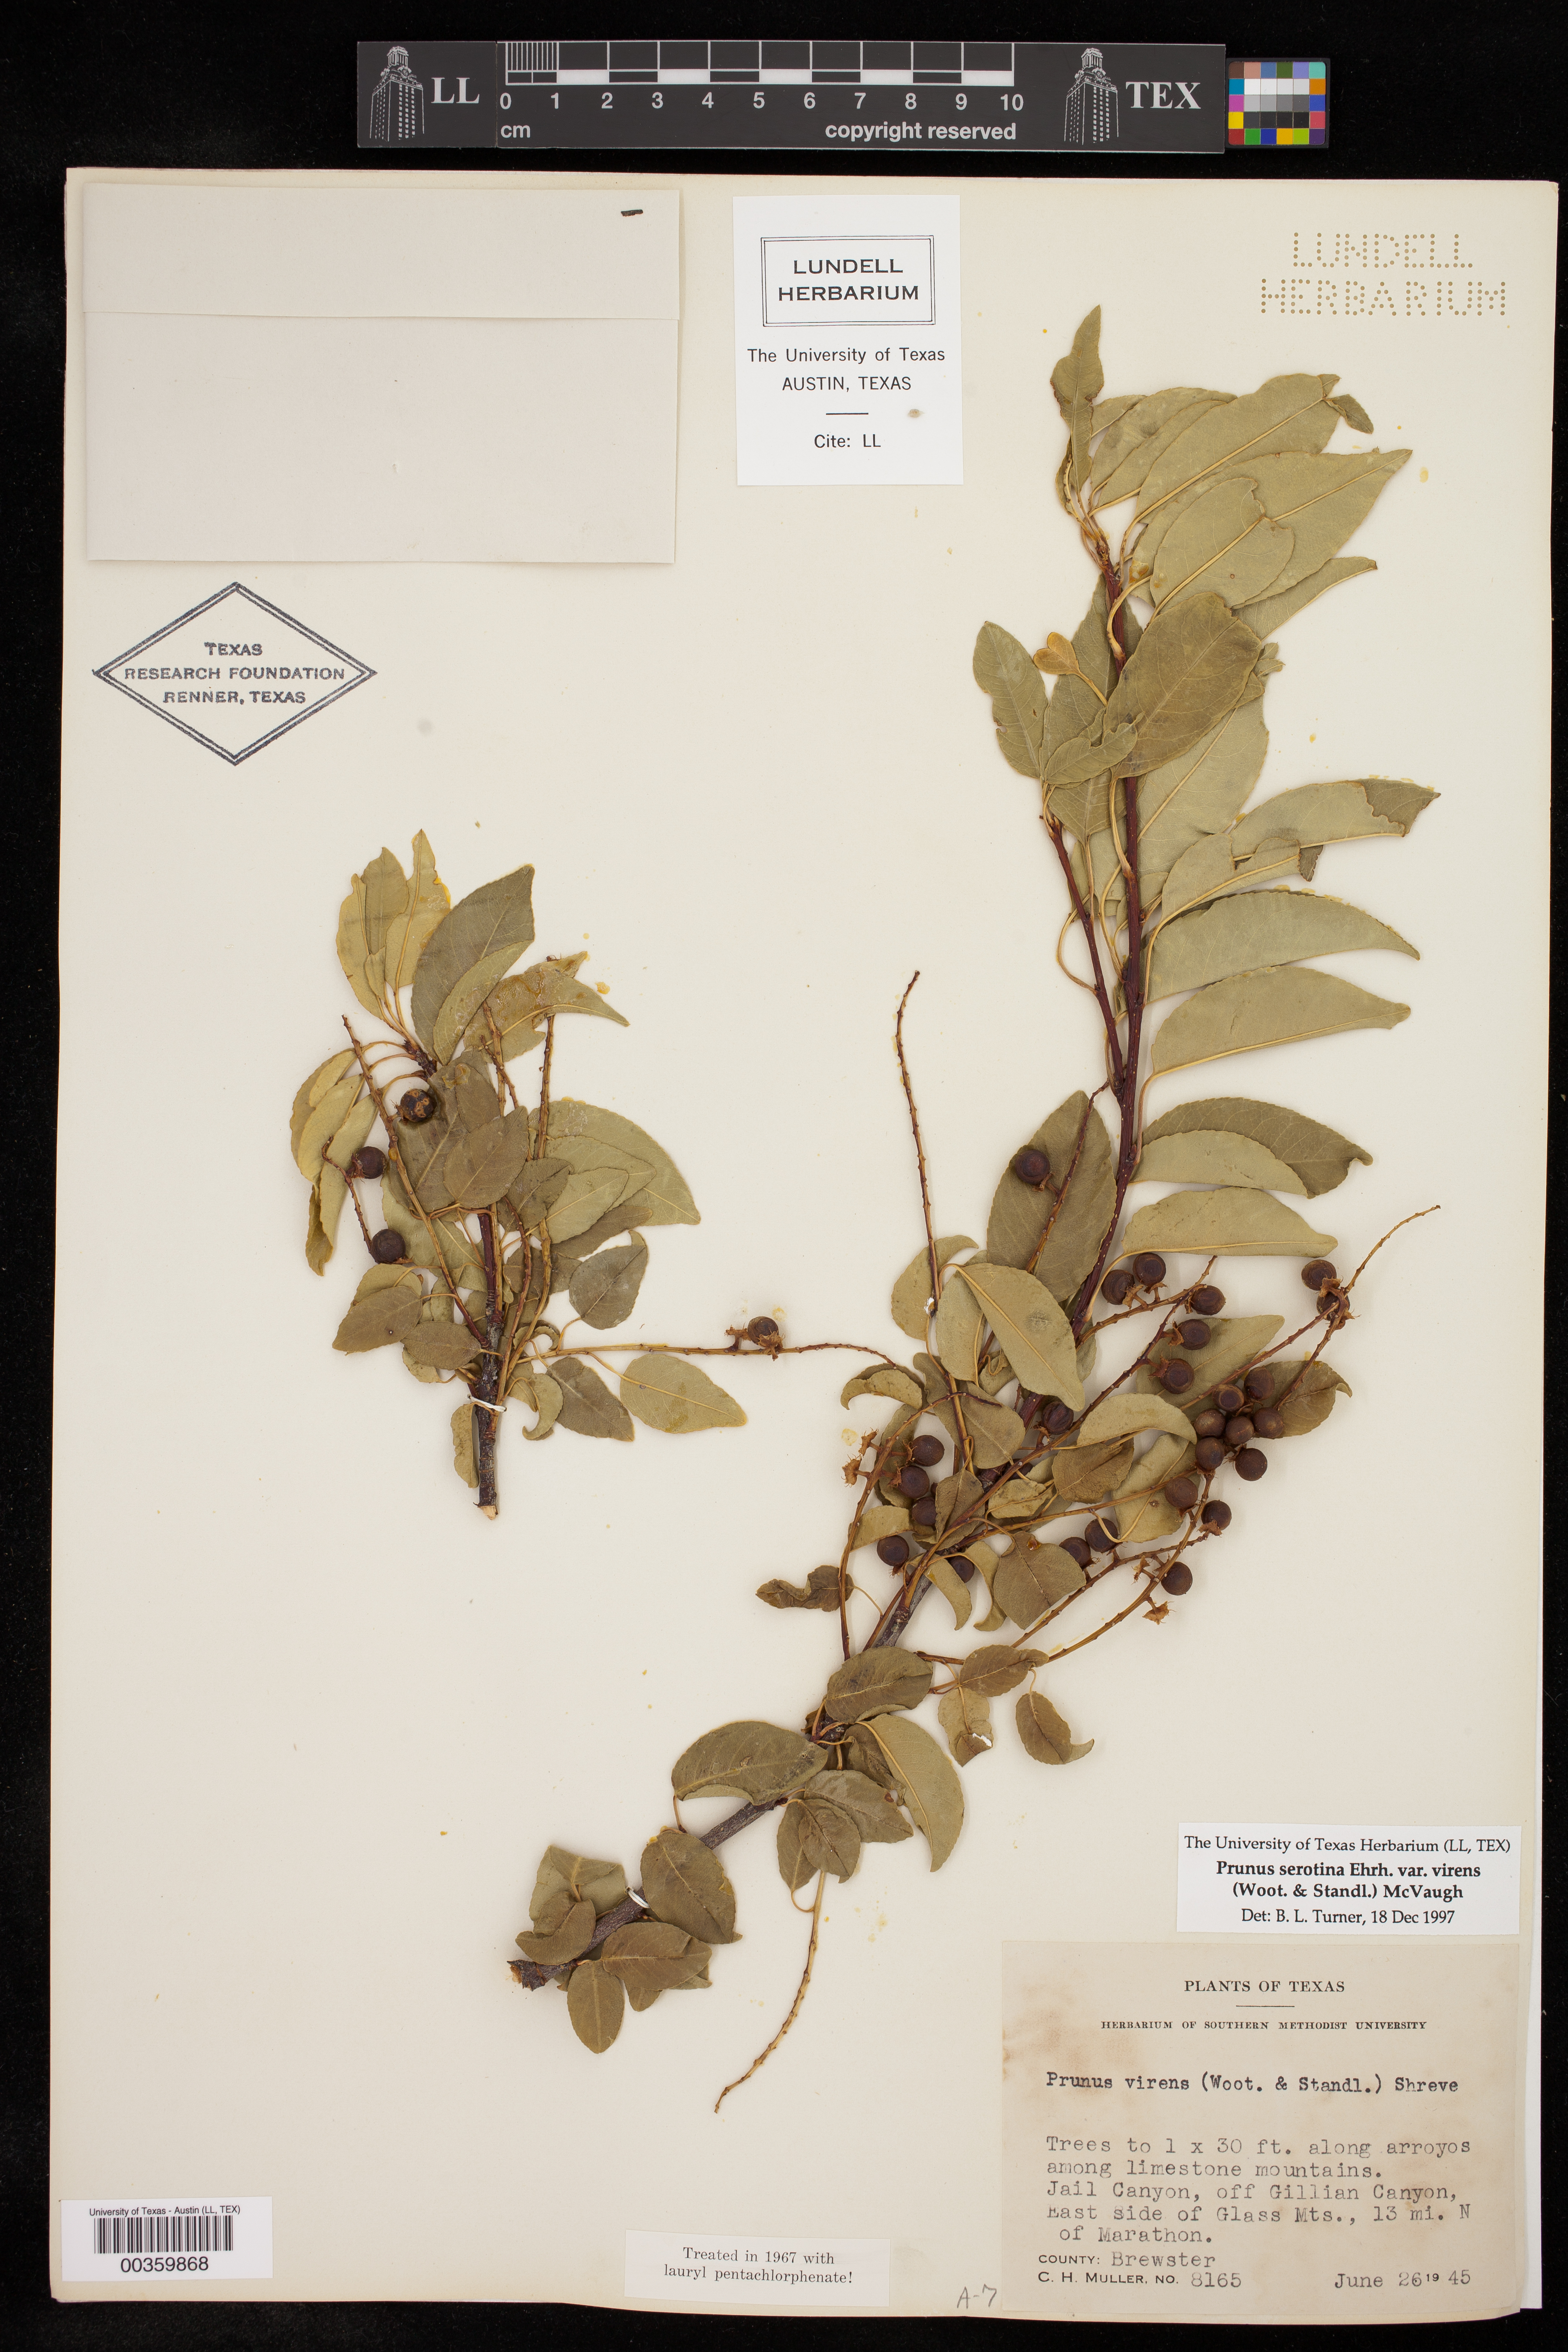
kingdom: Plantae
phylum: Tracheophyta
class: Magnoliopsida
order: Rosales
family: Rosaceae
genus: Prunus
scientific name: Prunus serotina
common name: Black cherry
